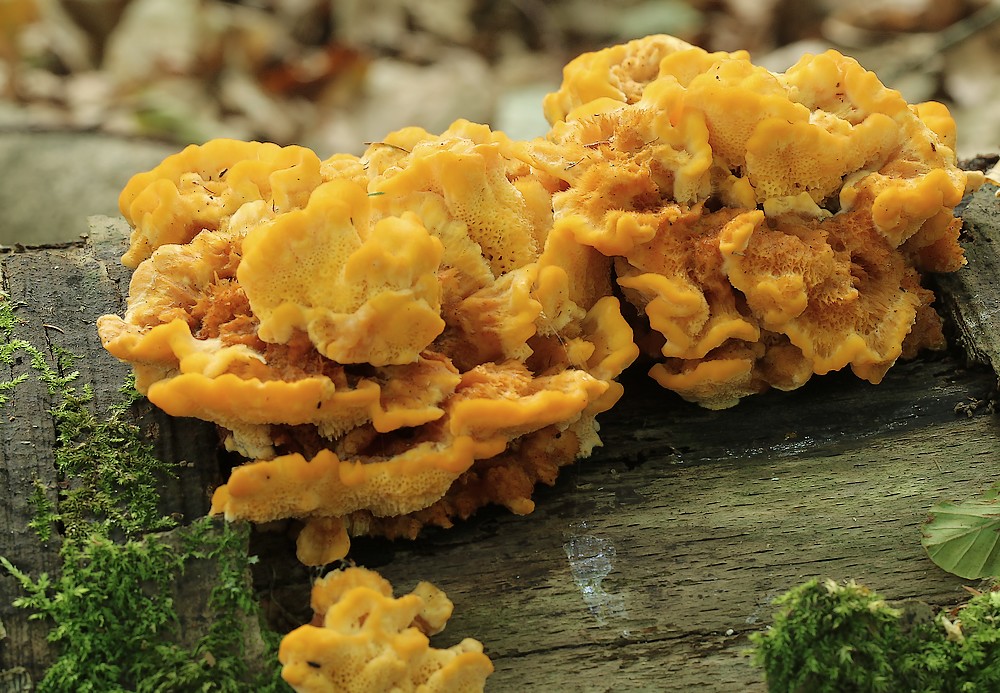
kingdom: Fungi
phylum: Basidiomycota
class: Agaricomycetes
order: Polyporales
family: Pycnoporellaceae
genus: Pycnoporellus
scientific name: Pycnoporellus fulgens
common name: flammeporesvamp
